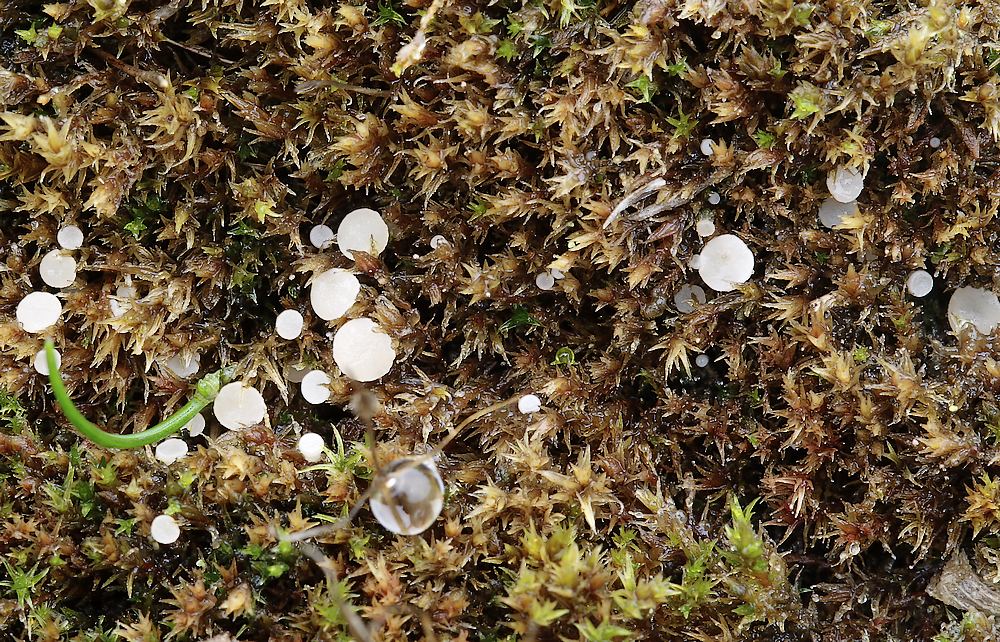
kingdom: Fungi
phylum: Ascomycota
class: Leotiomycetes
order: Helotiales
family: Helotiaceae
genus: Bryoscyphus
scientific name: Bryoscyphus dicrani
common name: bladmos-stilkskive
